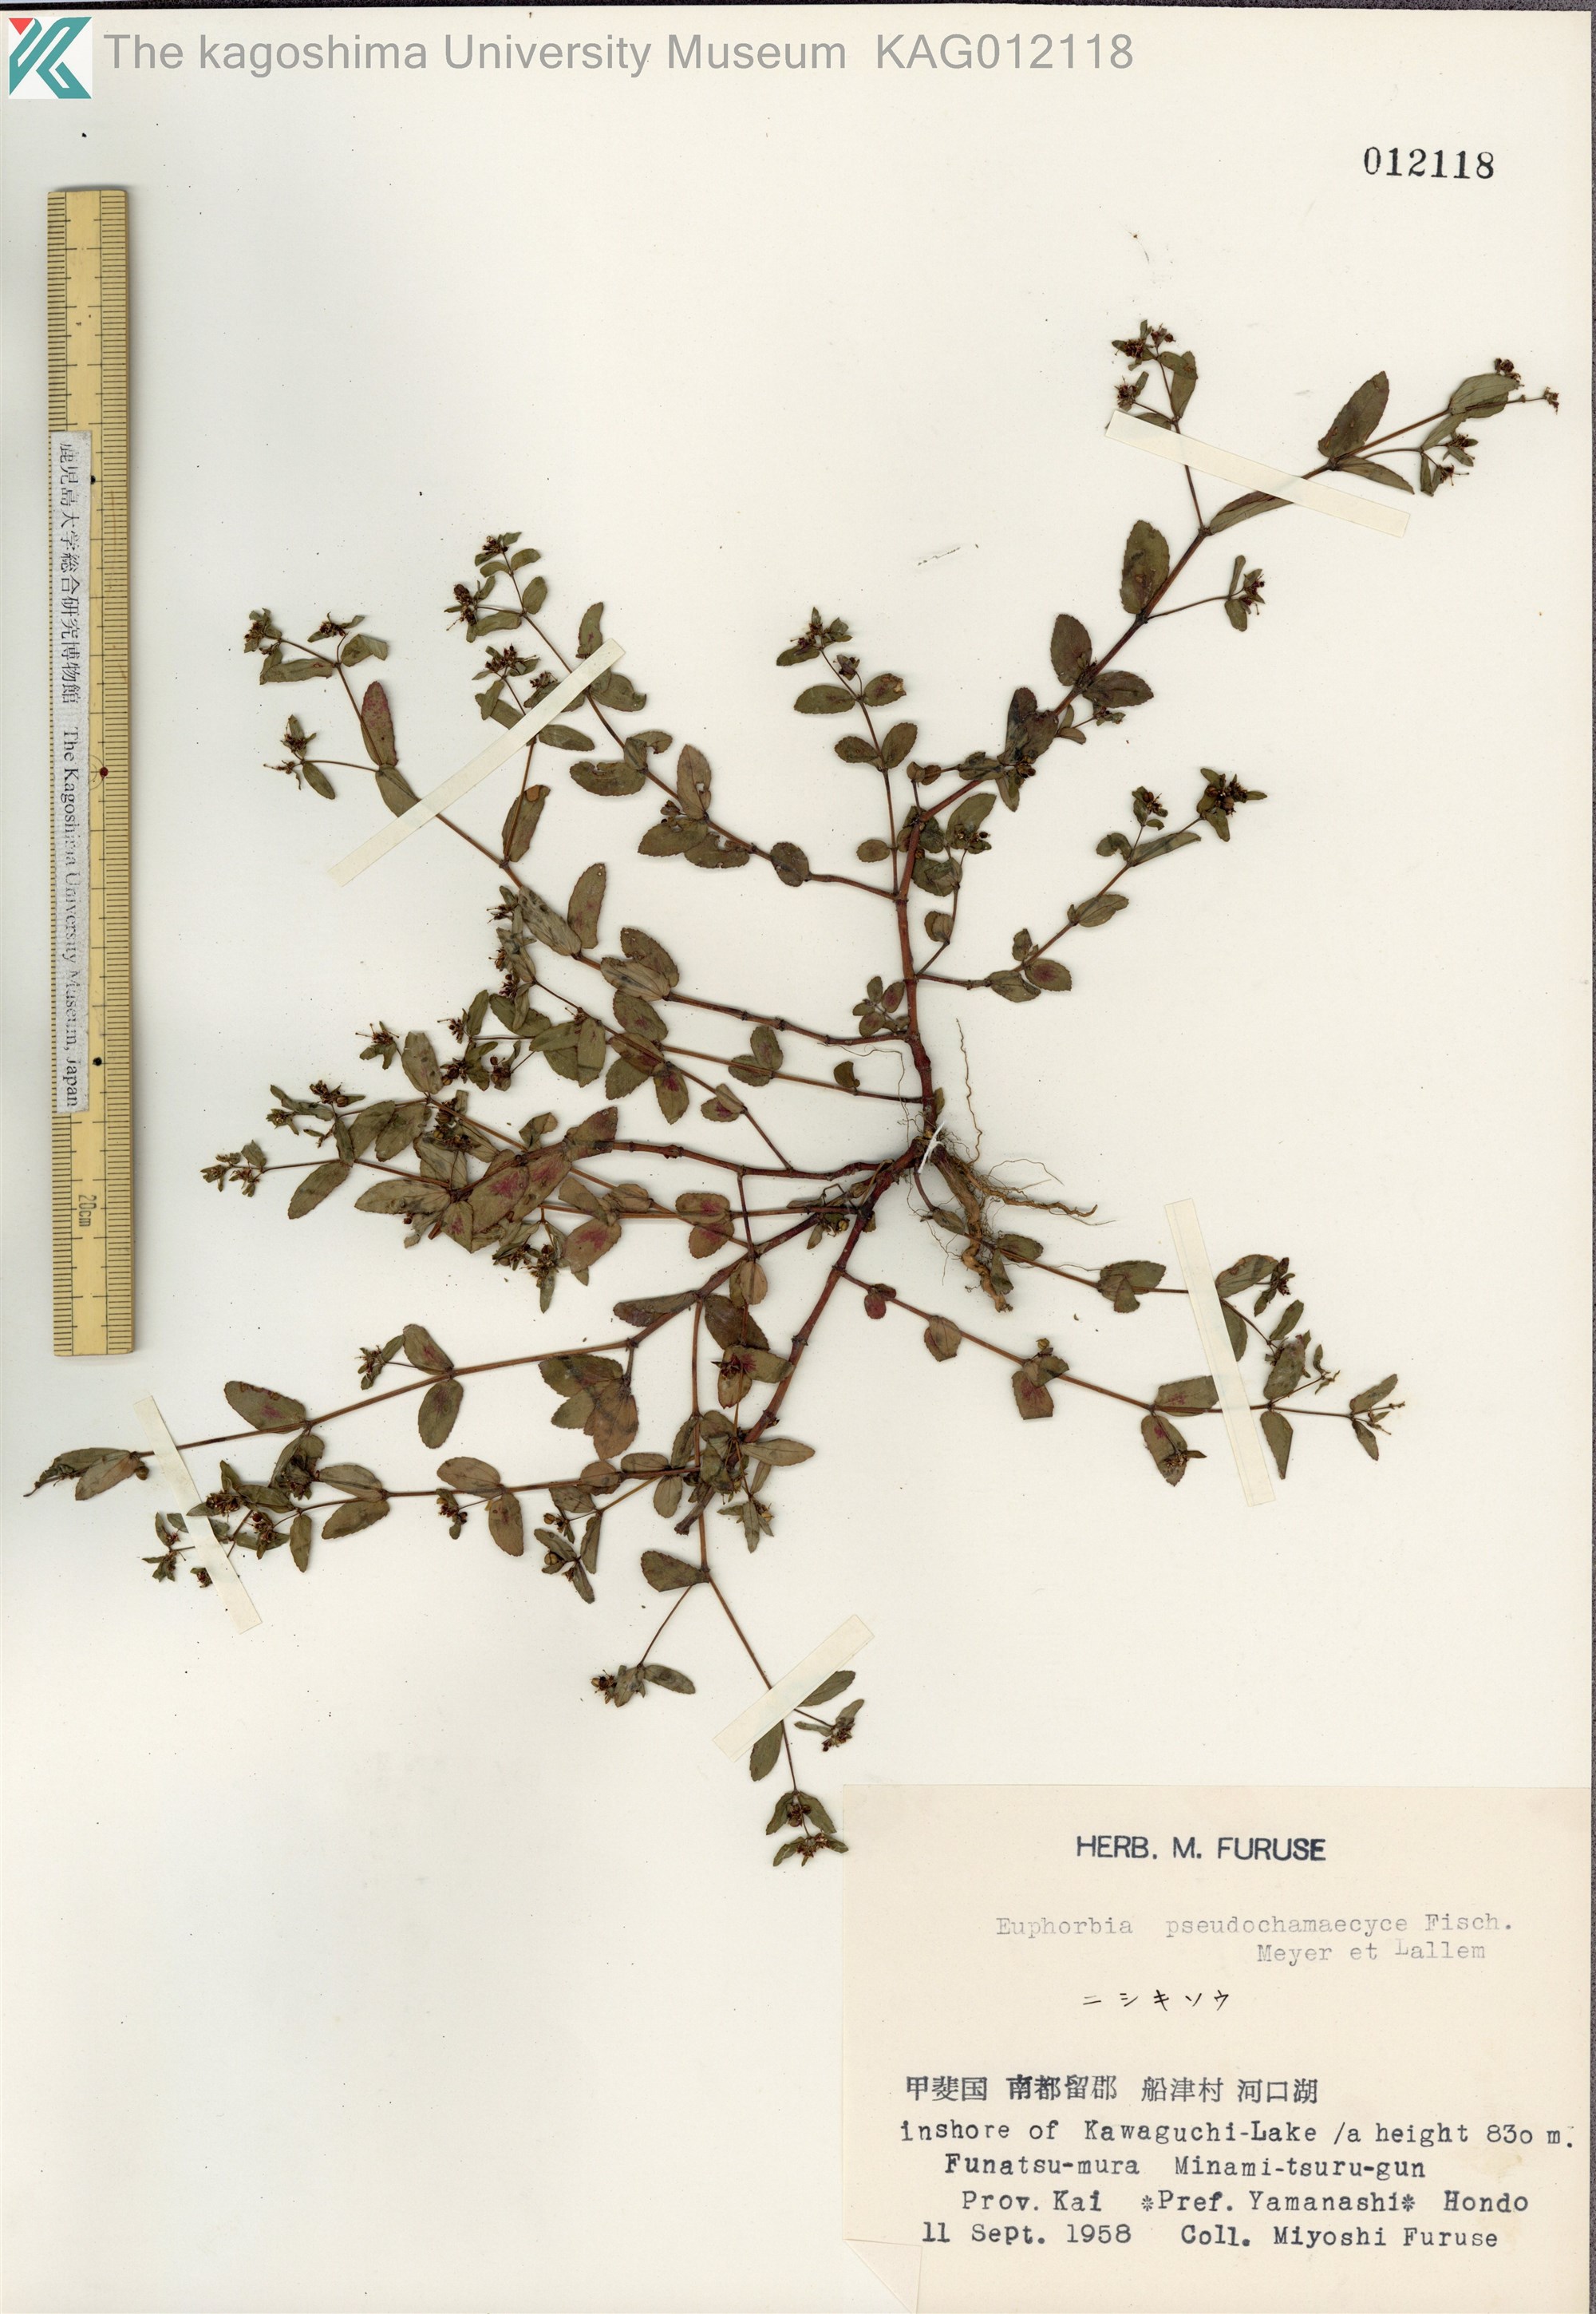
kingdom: Plantae
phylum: Tracheophyta
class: Magnoliopsida
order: Malpighiales
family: Euphorbiaceae
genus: Euphorbia
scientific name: Euphorbia humifusa
